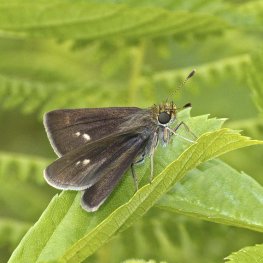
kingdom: Animalia
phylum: Arthropoda
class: Insecta
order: Lepidoptera
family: Hesperiidae
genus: Euphyes
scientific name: Euphyes vestris
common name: Dun Skipper
